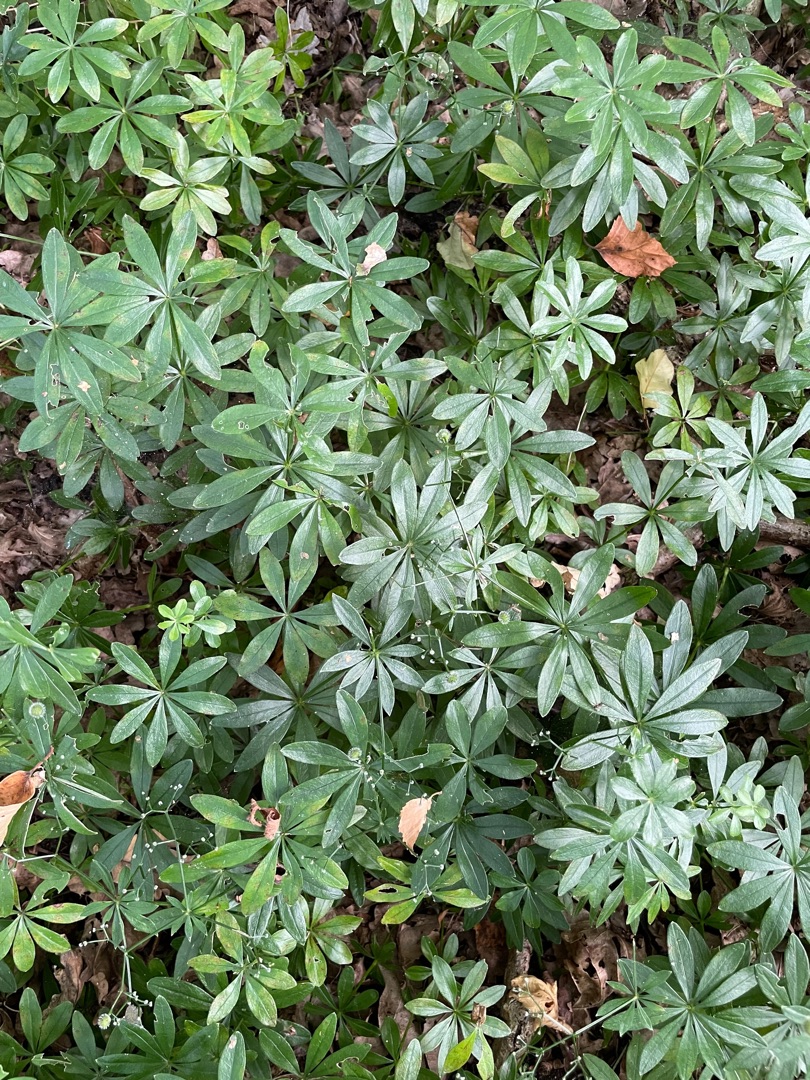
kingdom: Plantae
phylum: Tracheophyta
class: Magnoliopsida
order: Gentianales
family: Rubiaceae
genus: Galium
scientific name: Galium odoratum
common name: Skovmærke
